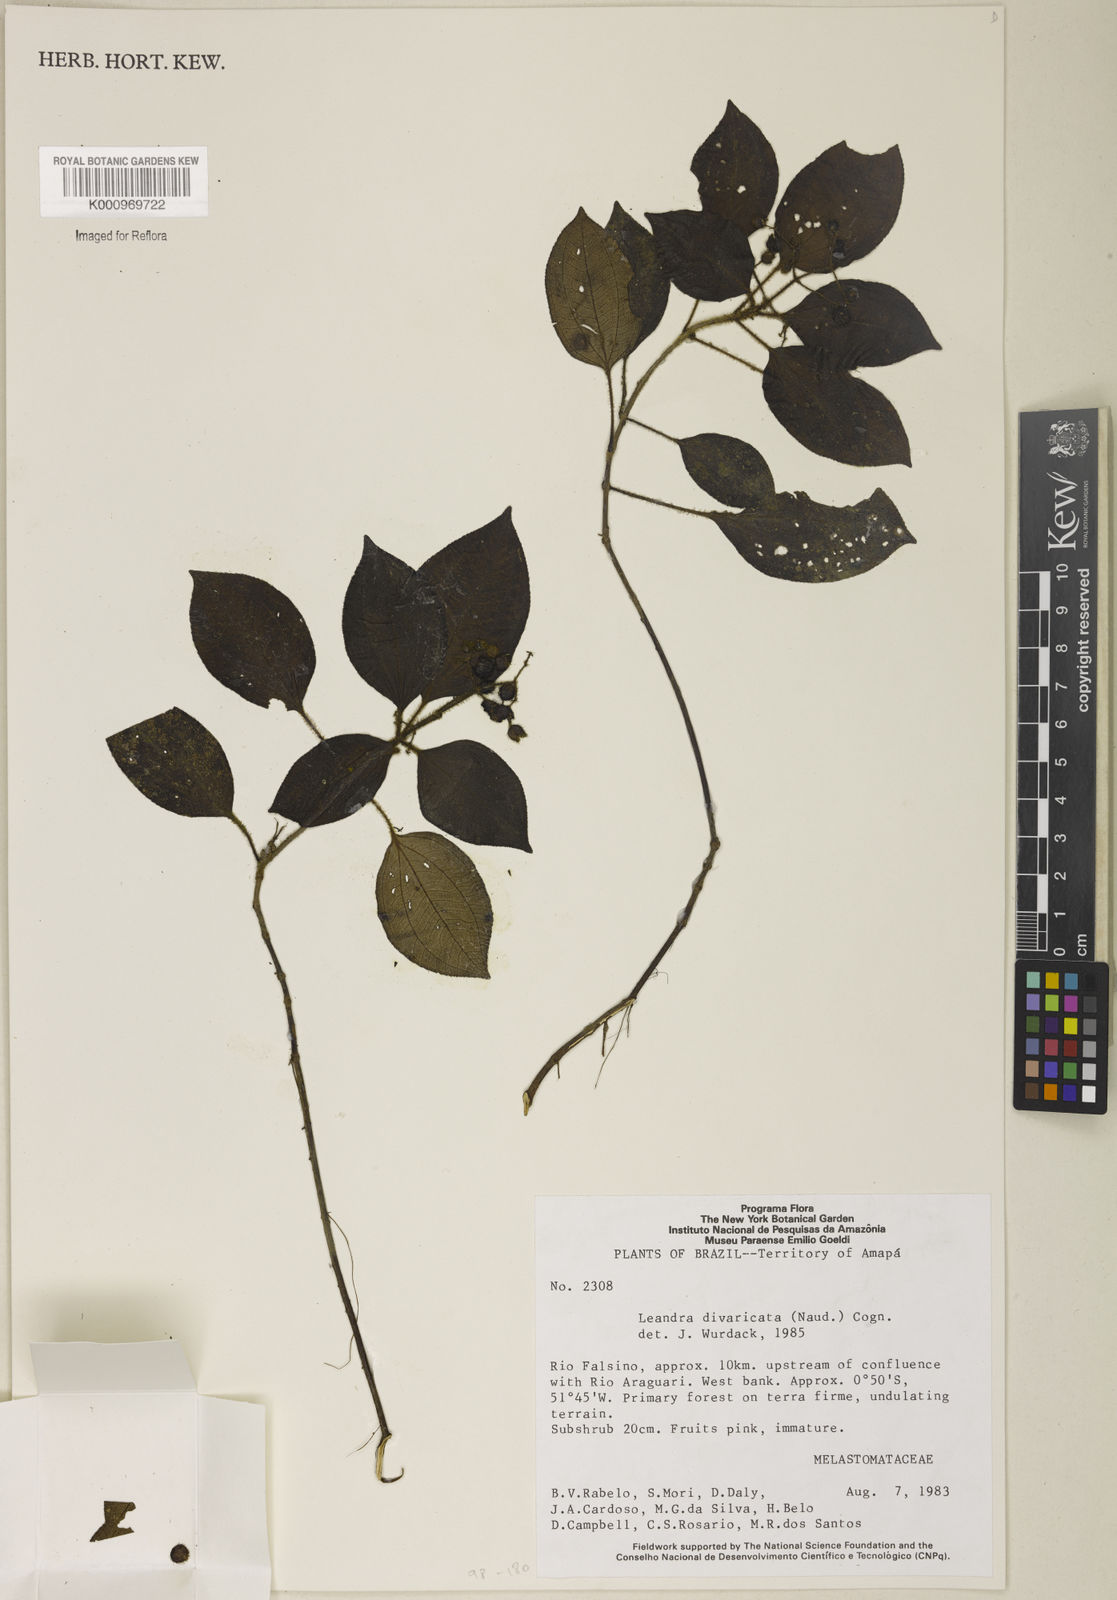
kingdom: Plantae
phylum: Tracheophyta
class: Magnoliopsida
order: Myrtales
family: Melastomataceae
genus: Miconia
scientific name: Miconia secundivaricata
